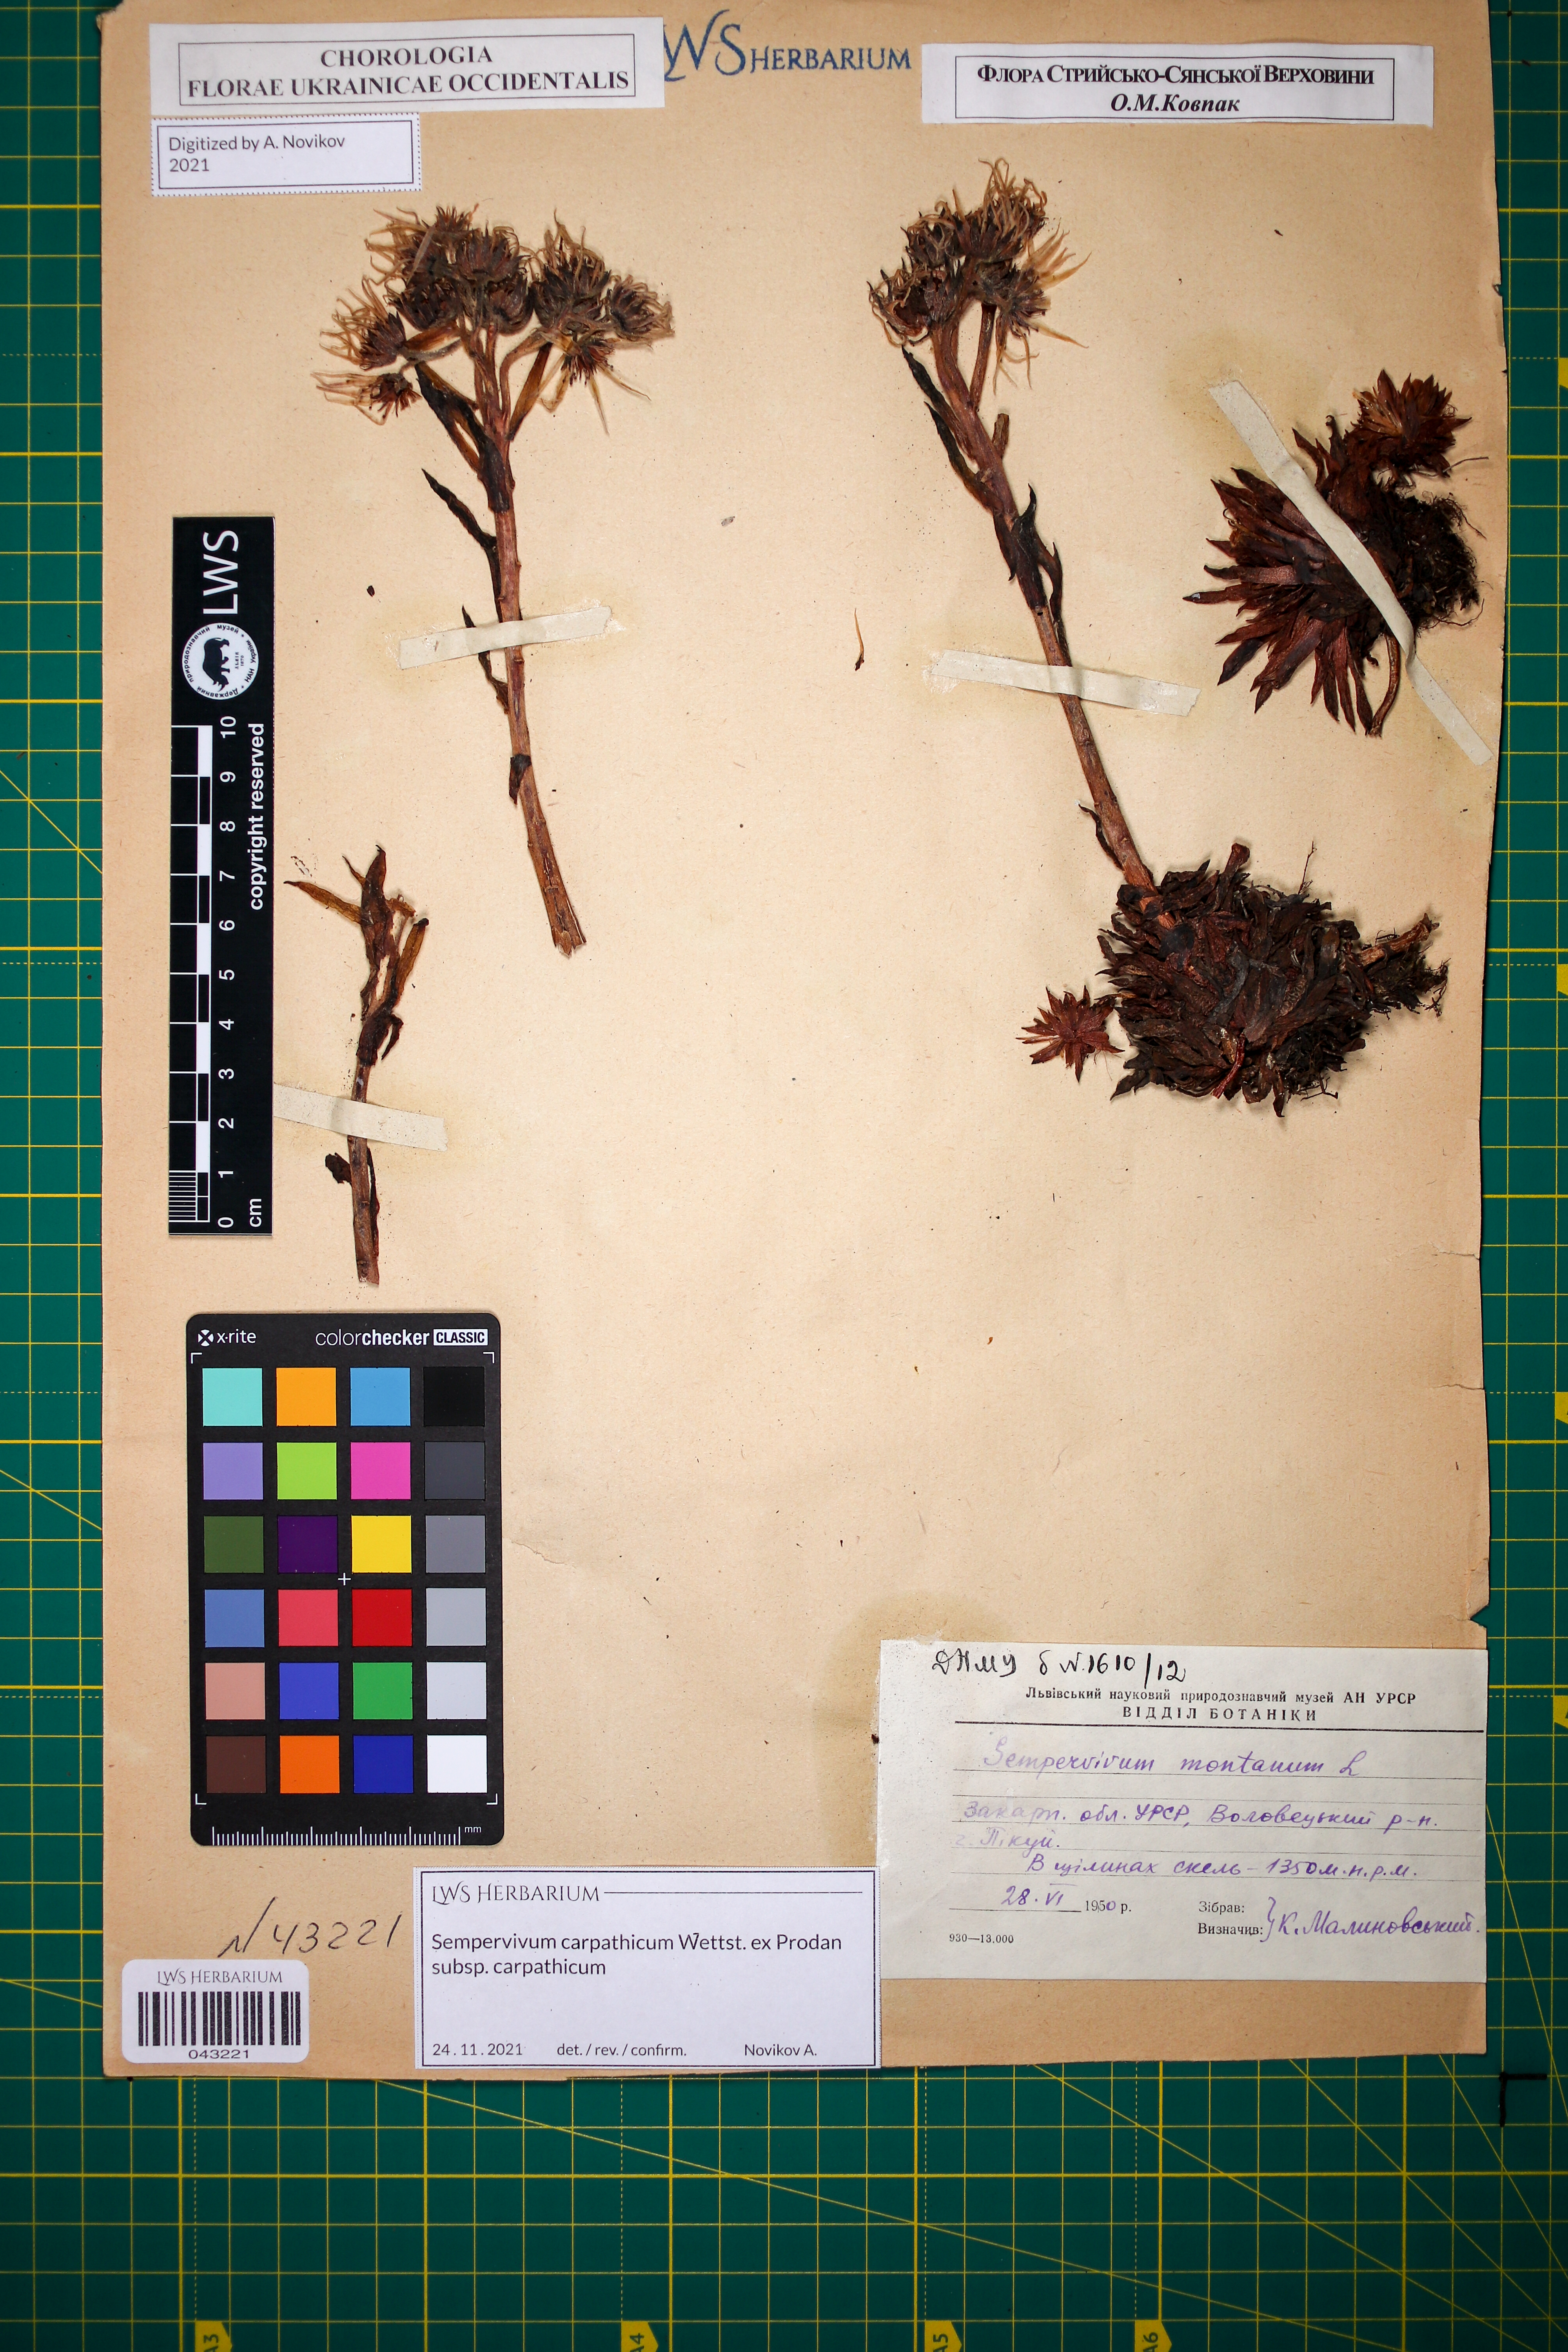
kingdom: Plantae
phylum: Tracheophyta
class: Magnoliopsida
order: Saxifragales
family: Crassulaceae
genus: Sempervivum
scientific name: Sempervivum montanum
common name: Mountain house-leek
